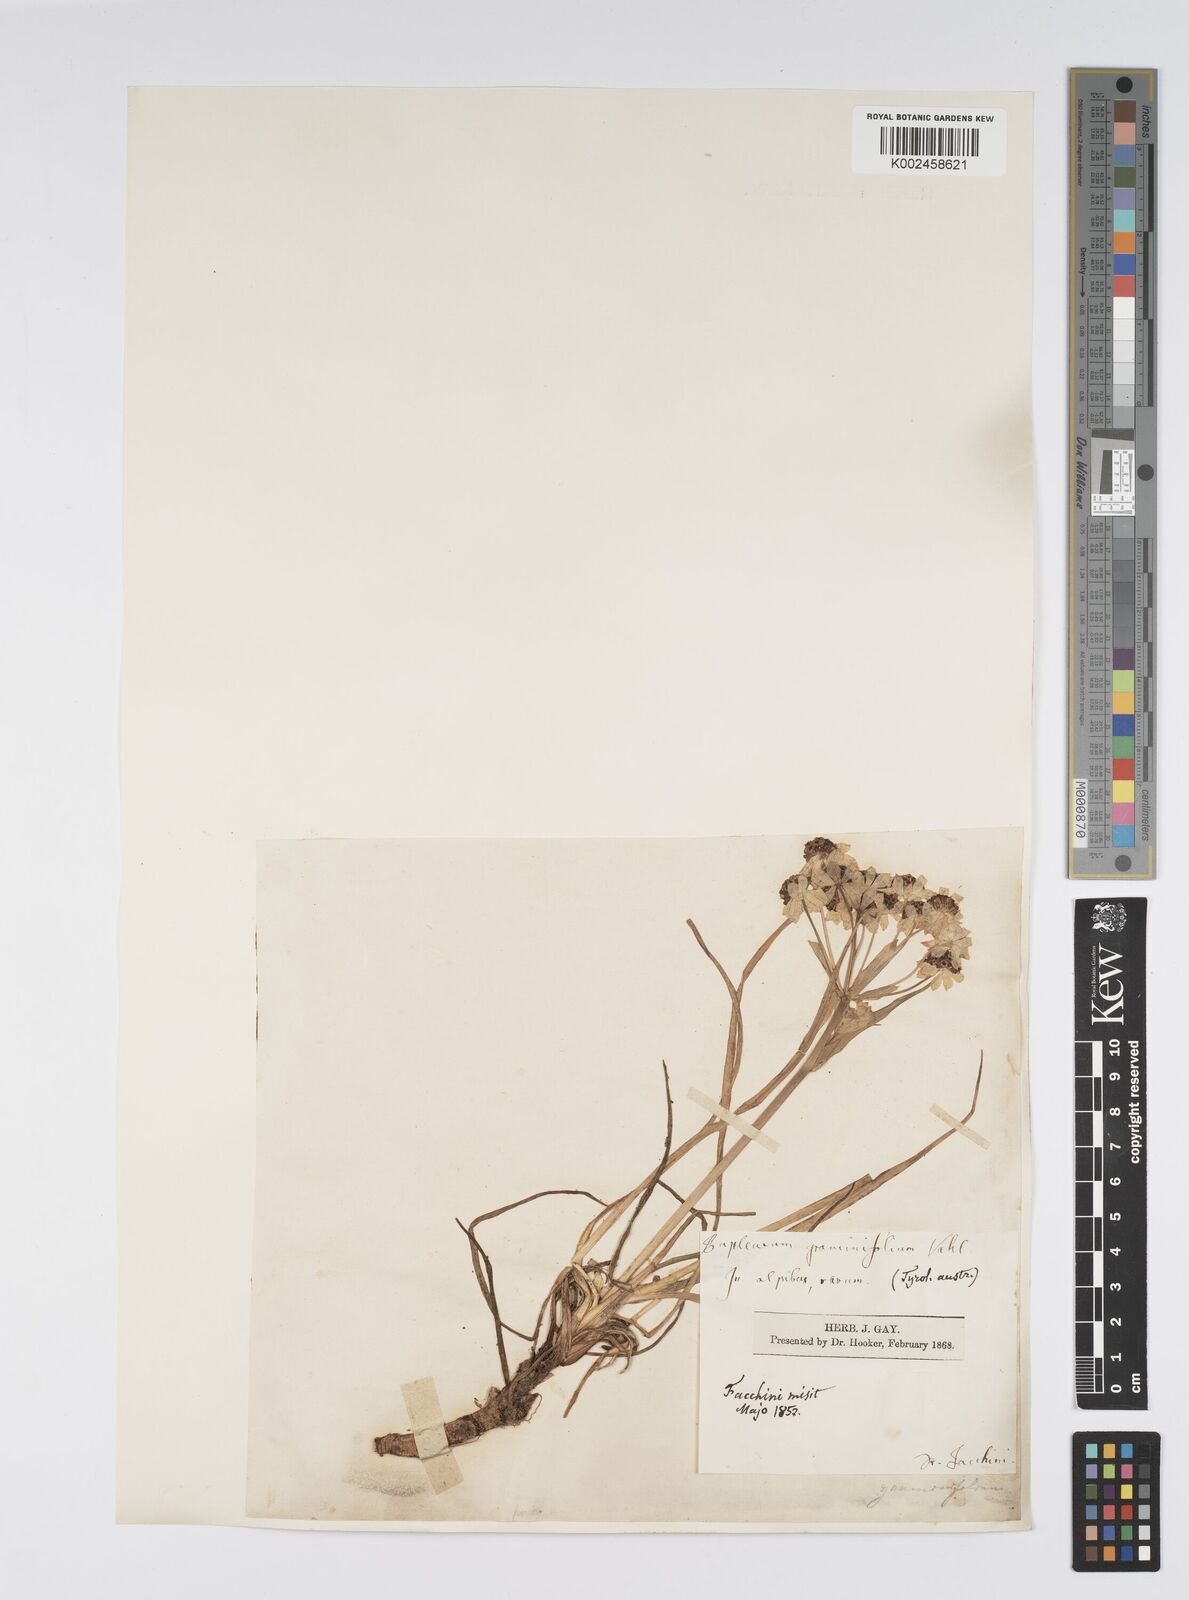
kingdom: Plantae
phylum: Tracheophyta
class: Magnoliopsida
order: Apiales
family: Apiaceae
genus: Bupleurum
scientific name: Bupleurum petraeum
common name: Rock hare's-ear
